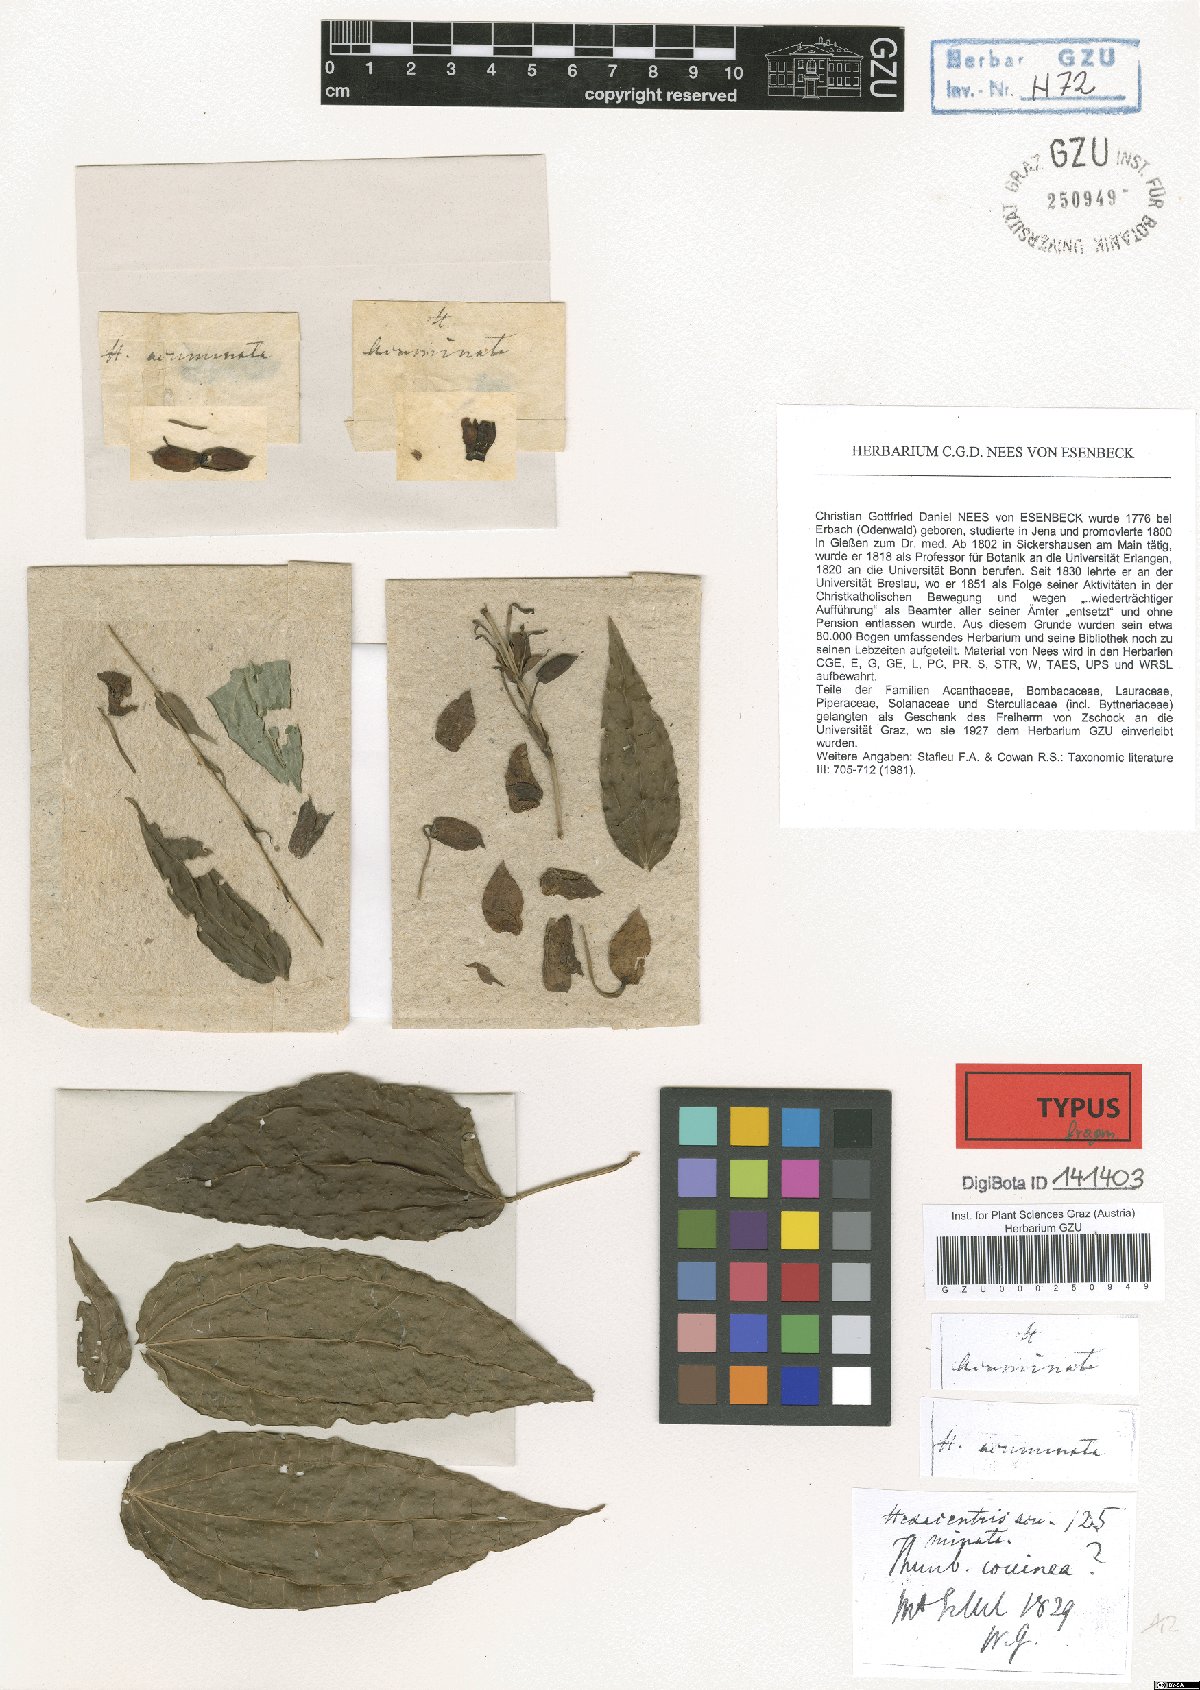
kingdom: Plantae
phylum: Tracheophyta
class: Magnoliopsida
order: Lamiales
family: Acanthaceae
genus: Thunbergia
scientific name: Thunbergia coccinea
